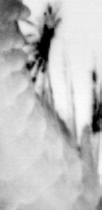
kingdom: Animalia
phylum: Annelida
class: Polychaeta
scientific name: Polychaeta
